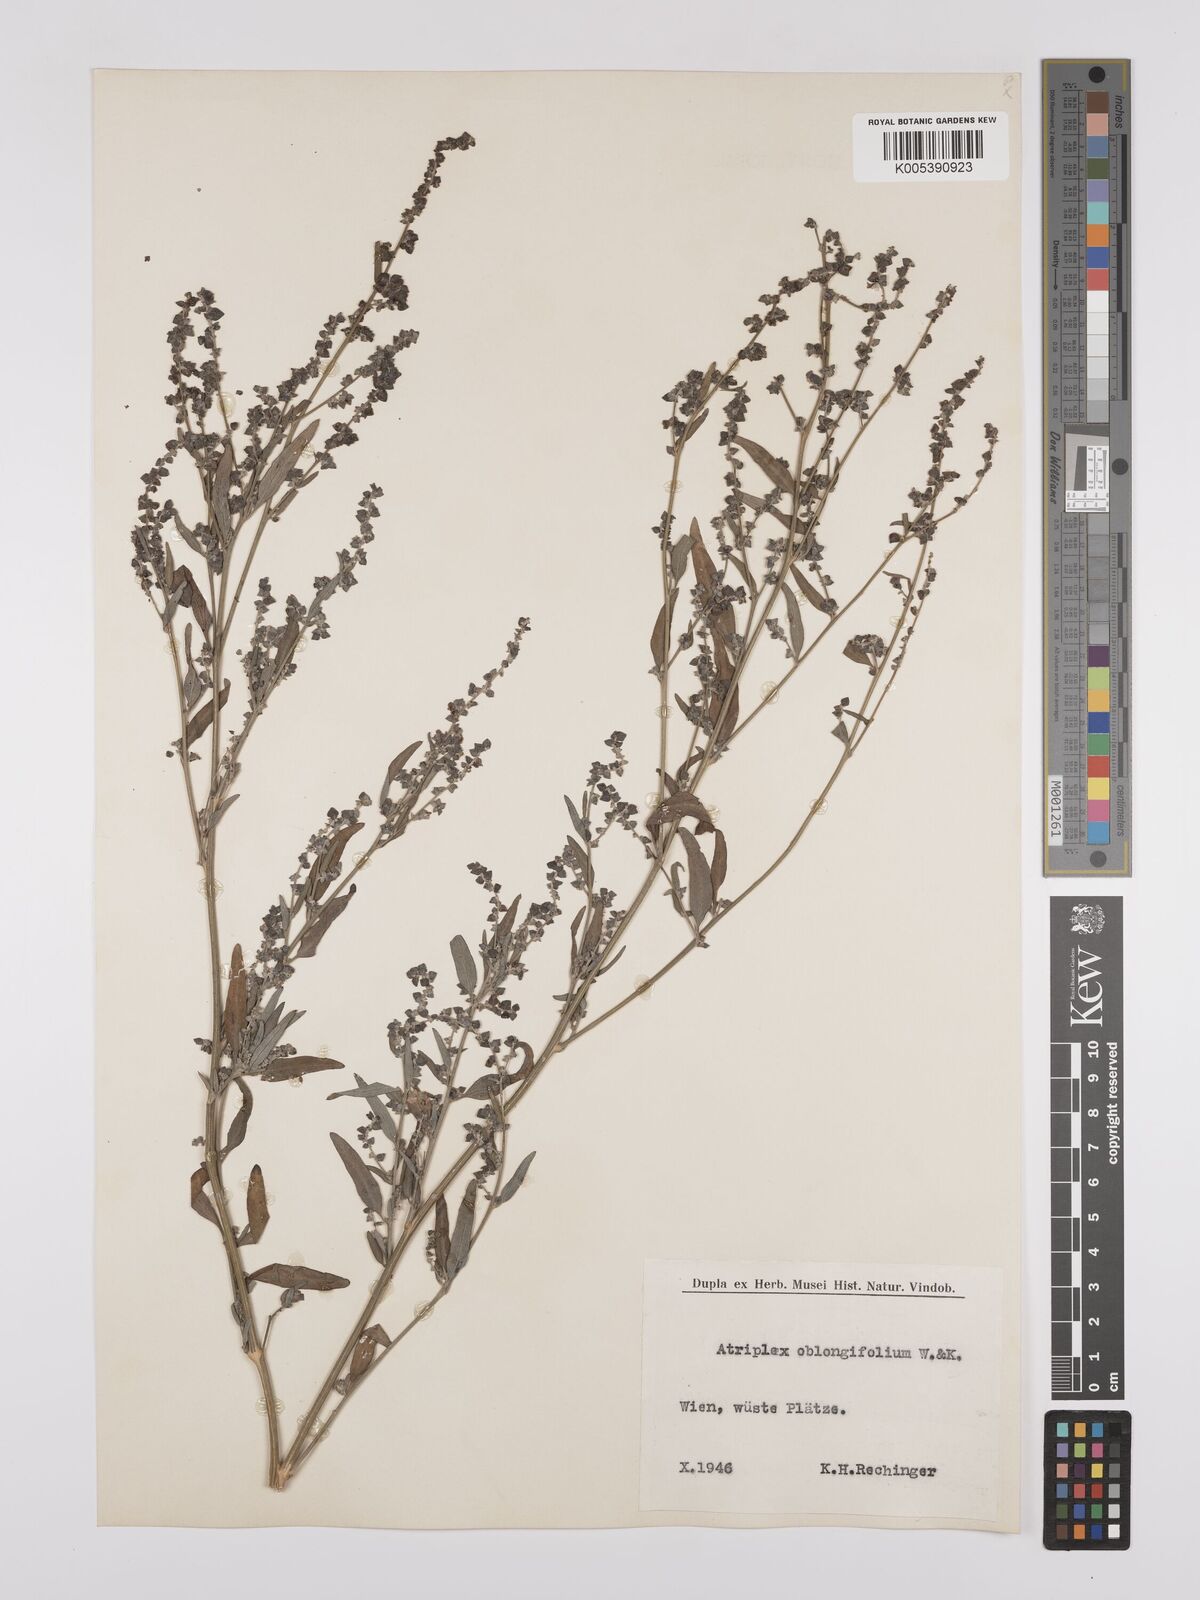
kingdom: Plantae
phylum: Tracheophyta
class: Magnoliopsida
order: Caryophyllales
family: Amaranthaceae
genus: Atriplex
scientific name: Atriplex
